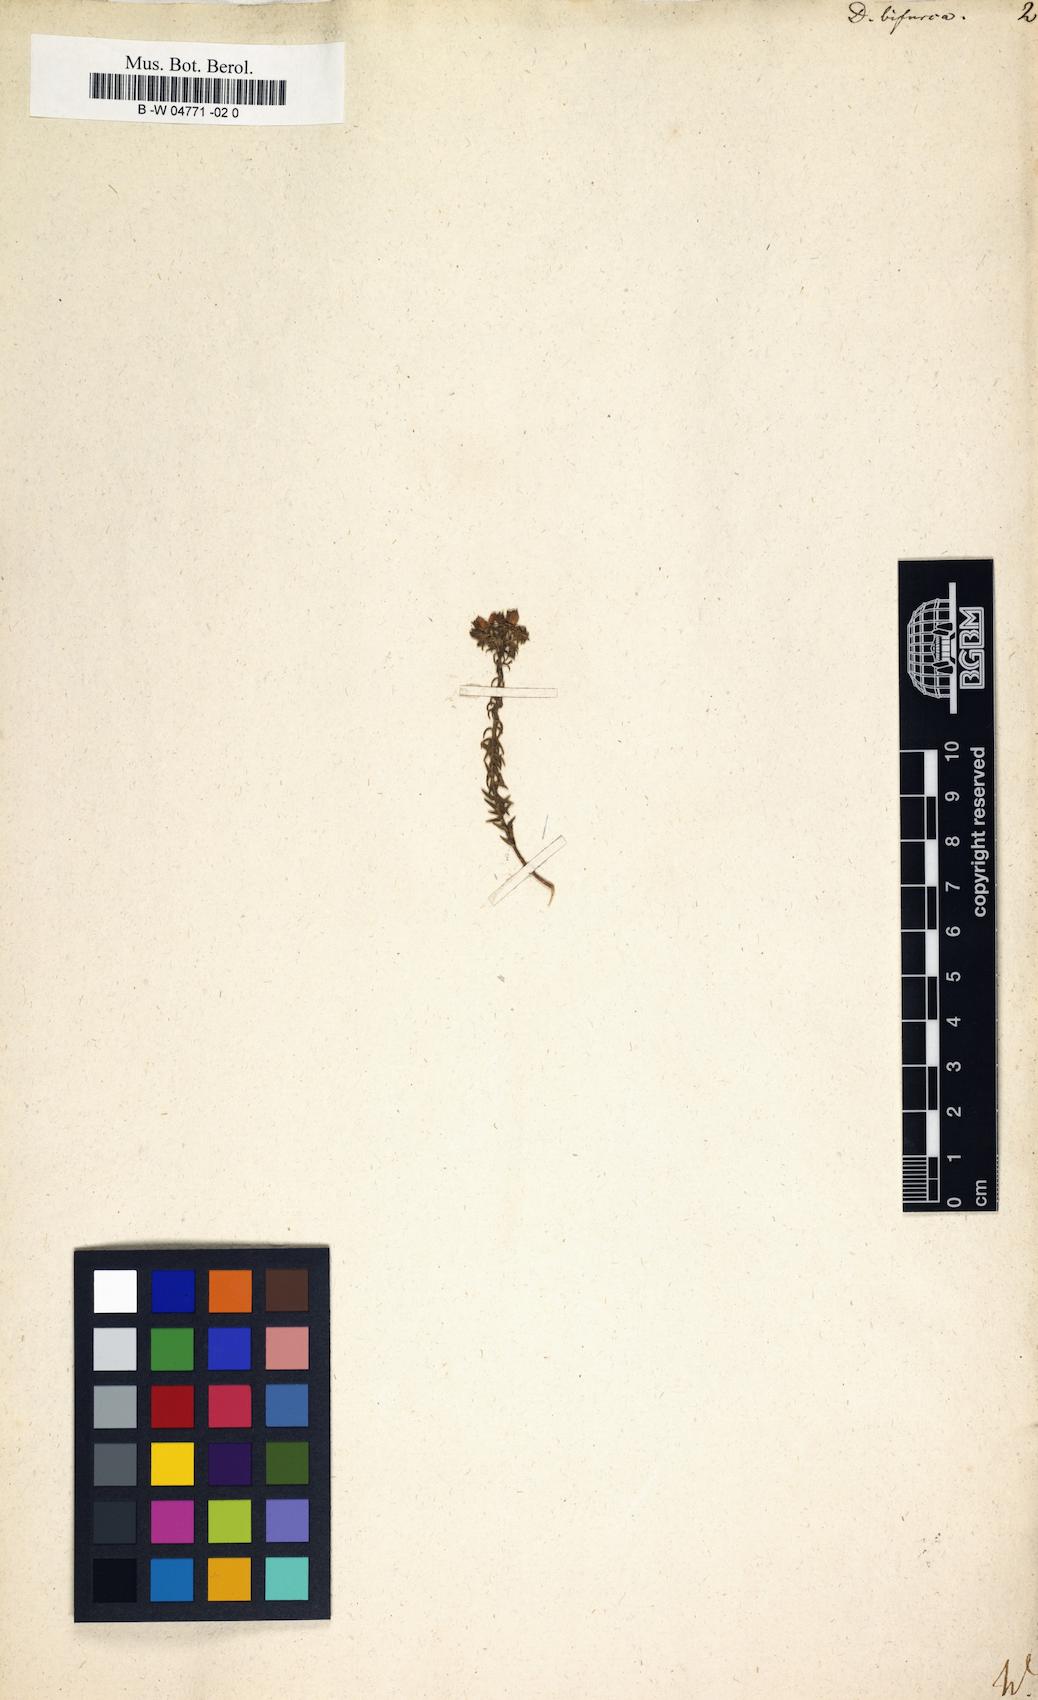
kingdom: Plantae
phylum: Tracheophyta
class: Magnoliopsida
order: Sapindales
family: Rutaceae
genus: Agathosma
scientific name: Agathosma bisulca
